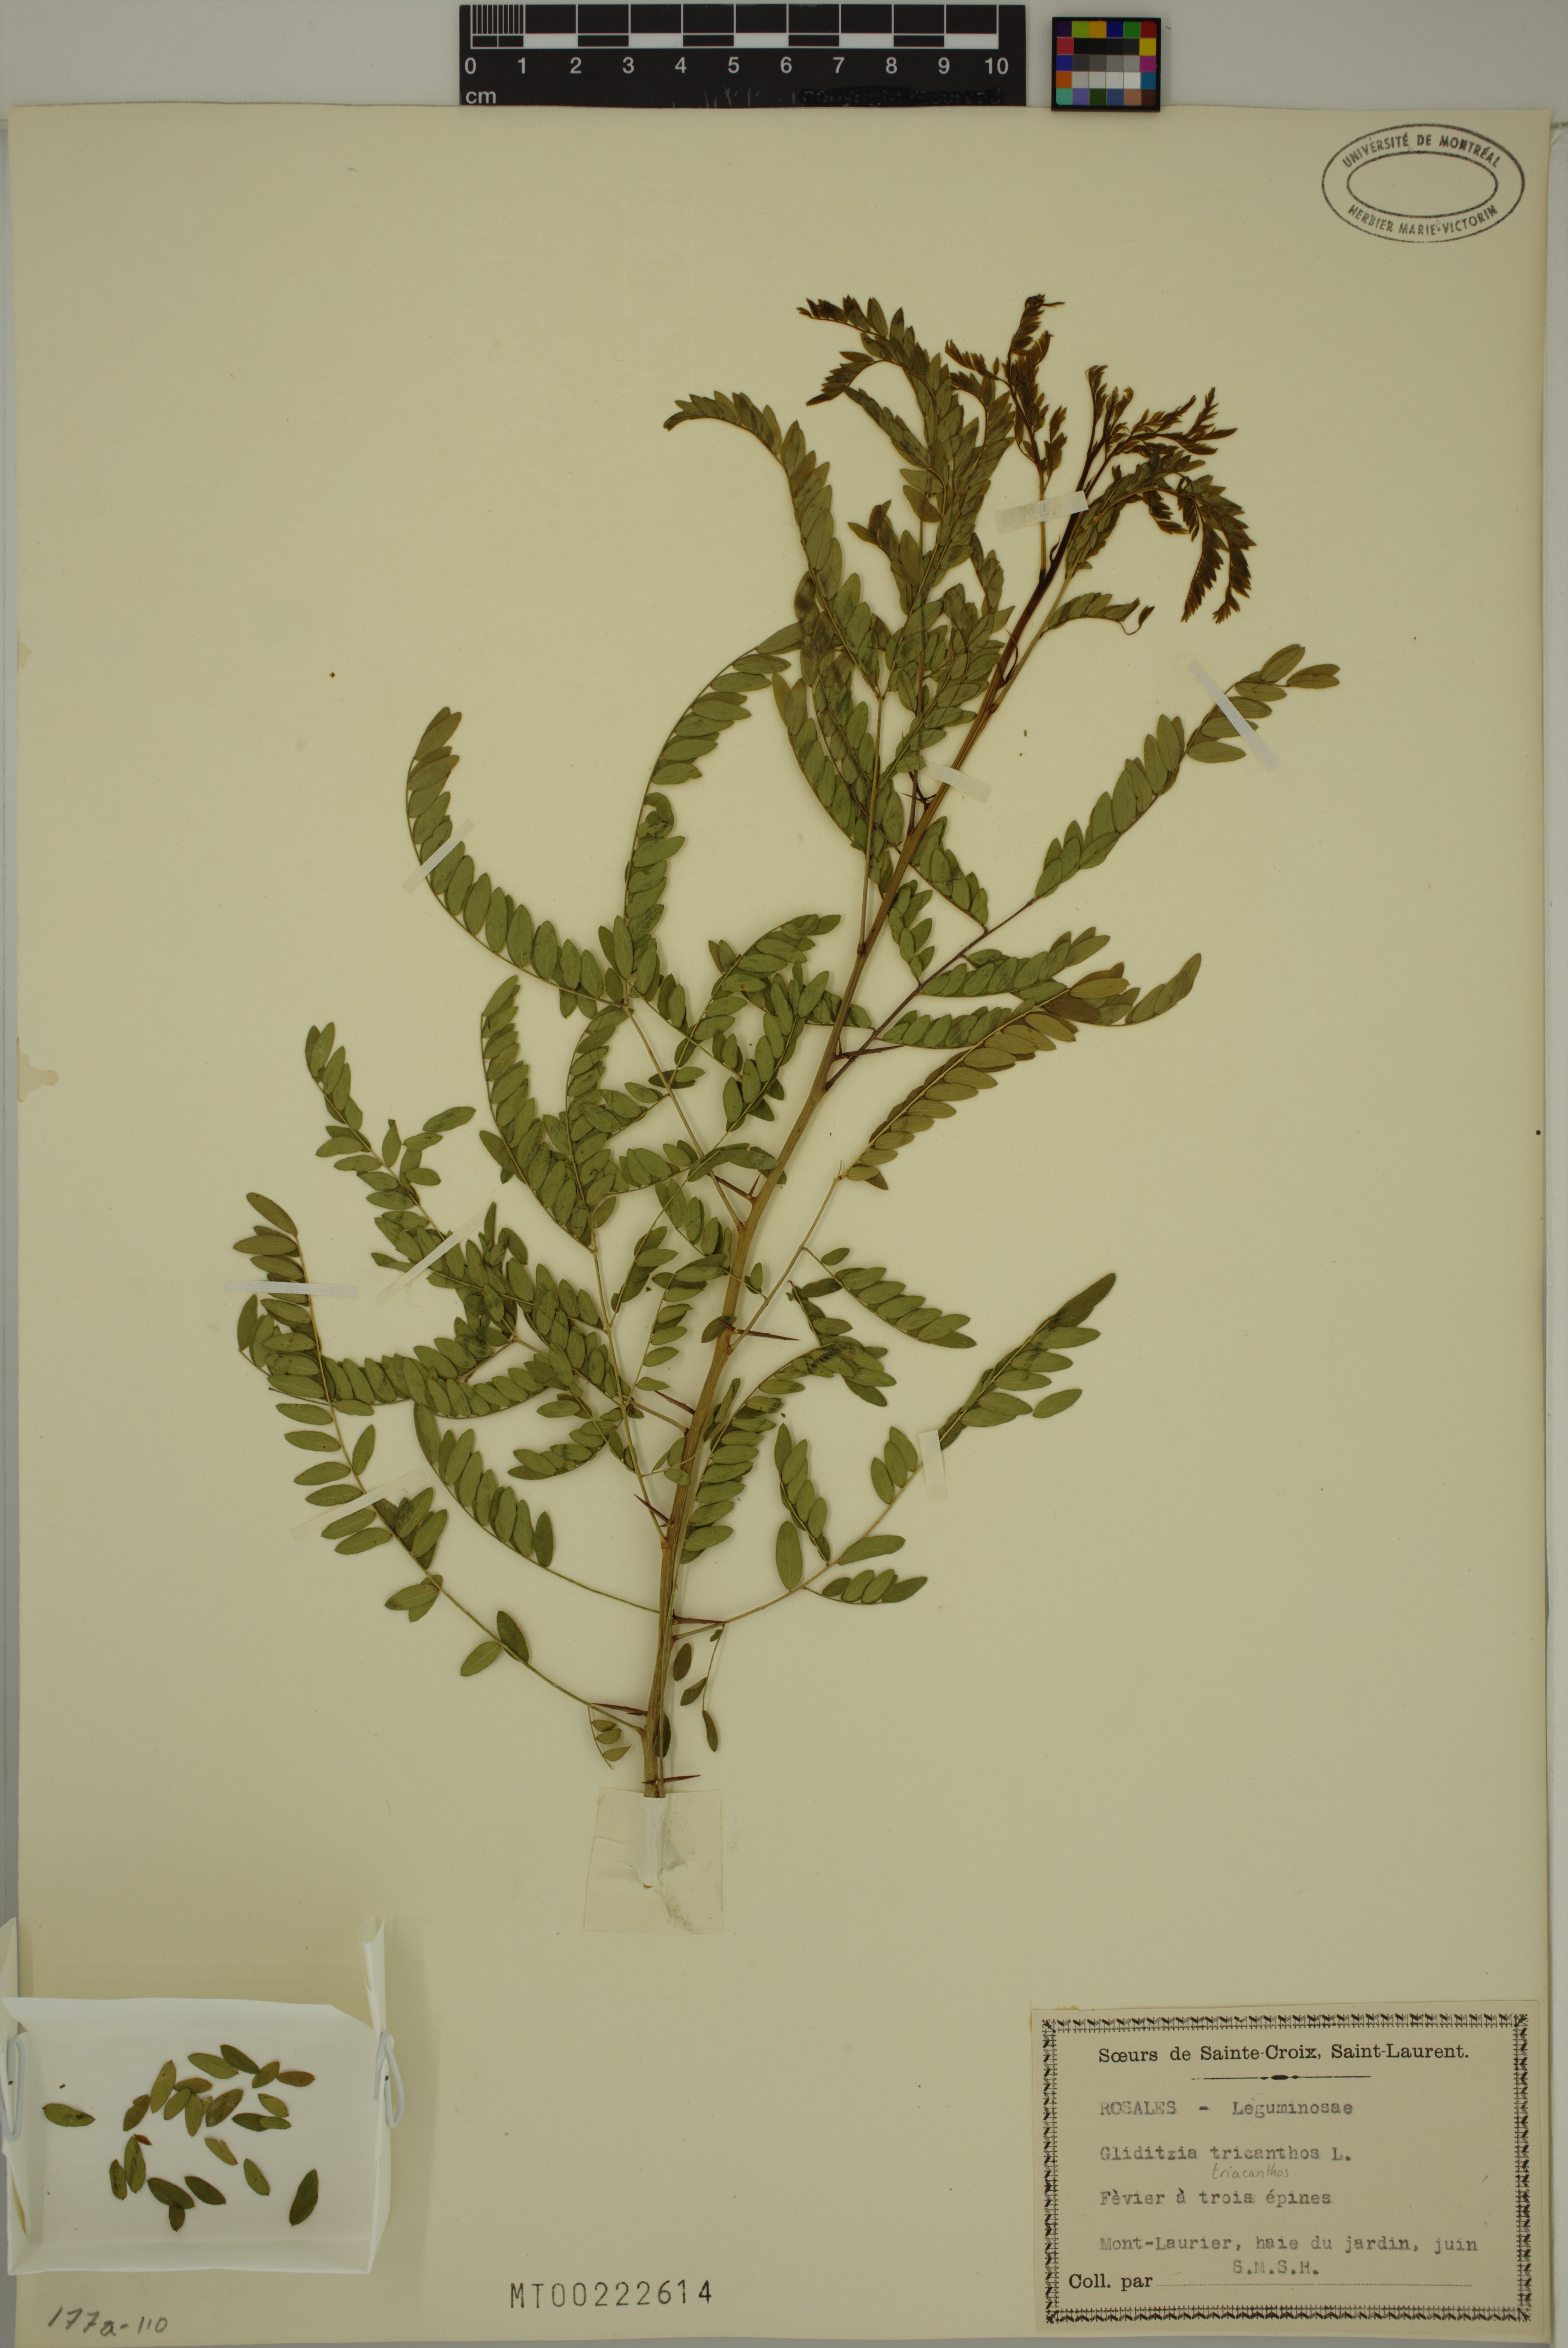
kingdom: Plantae
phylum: Tracheophyta
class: Magnoliopsida
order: Fabales
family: Fabaceae
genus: Gleditsia
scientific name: Gleditsia triacanthos
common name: Common honeylocust
